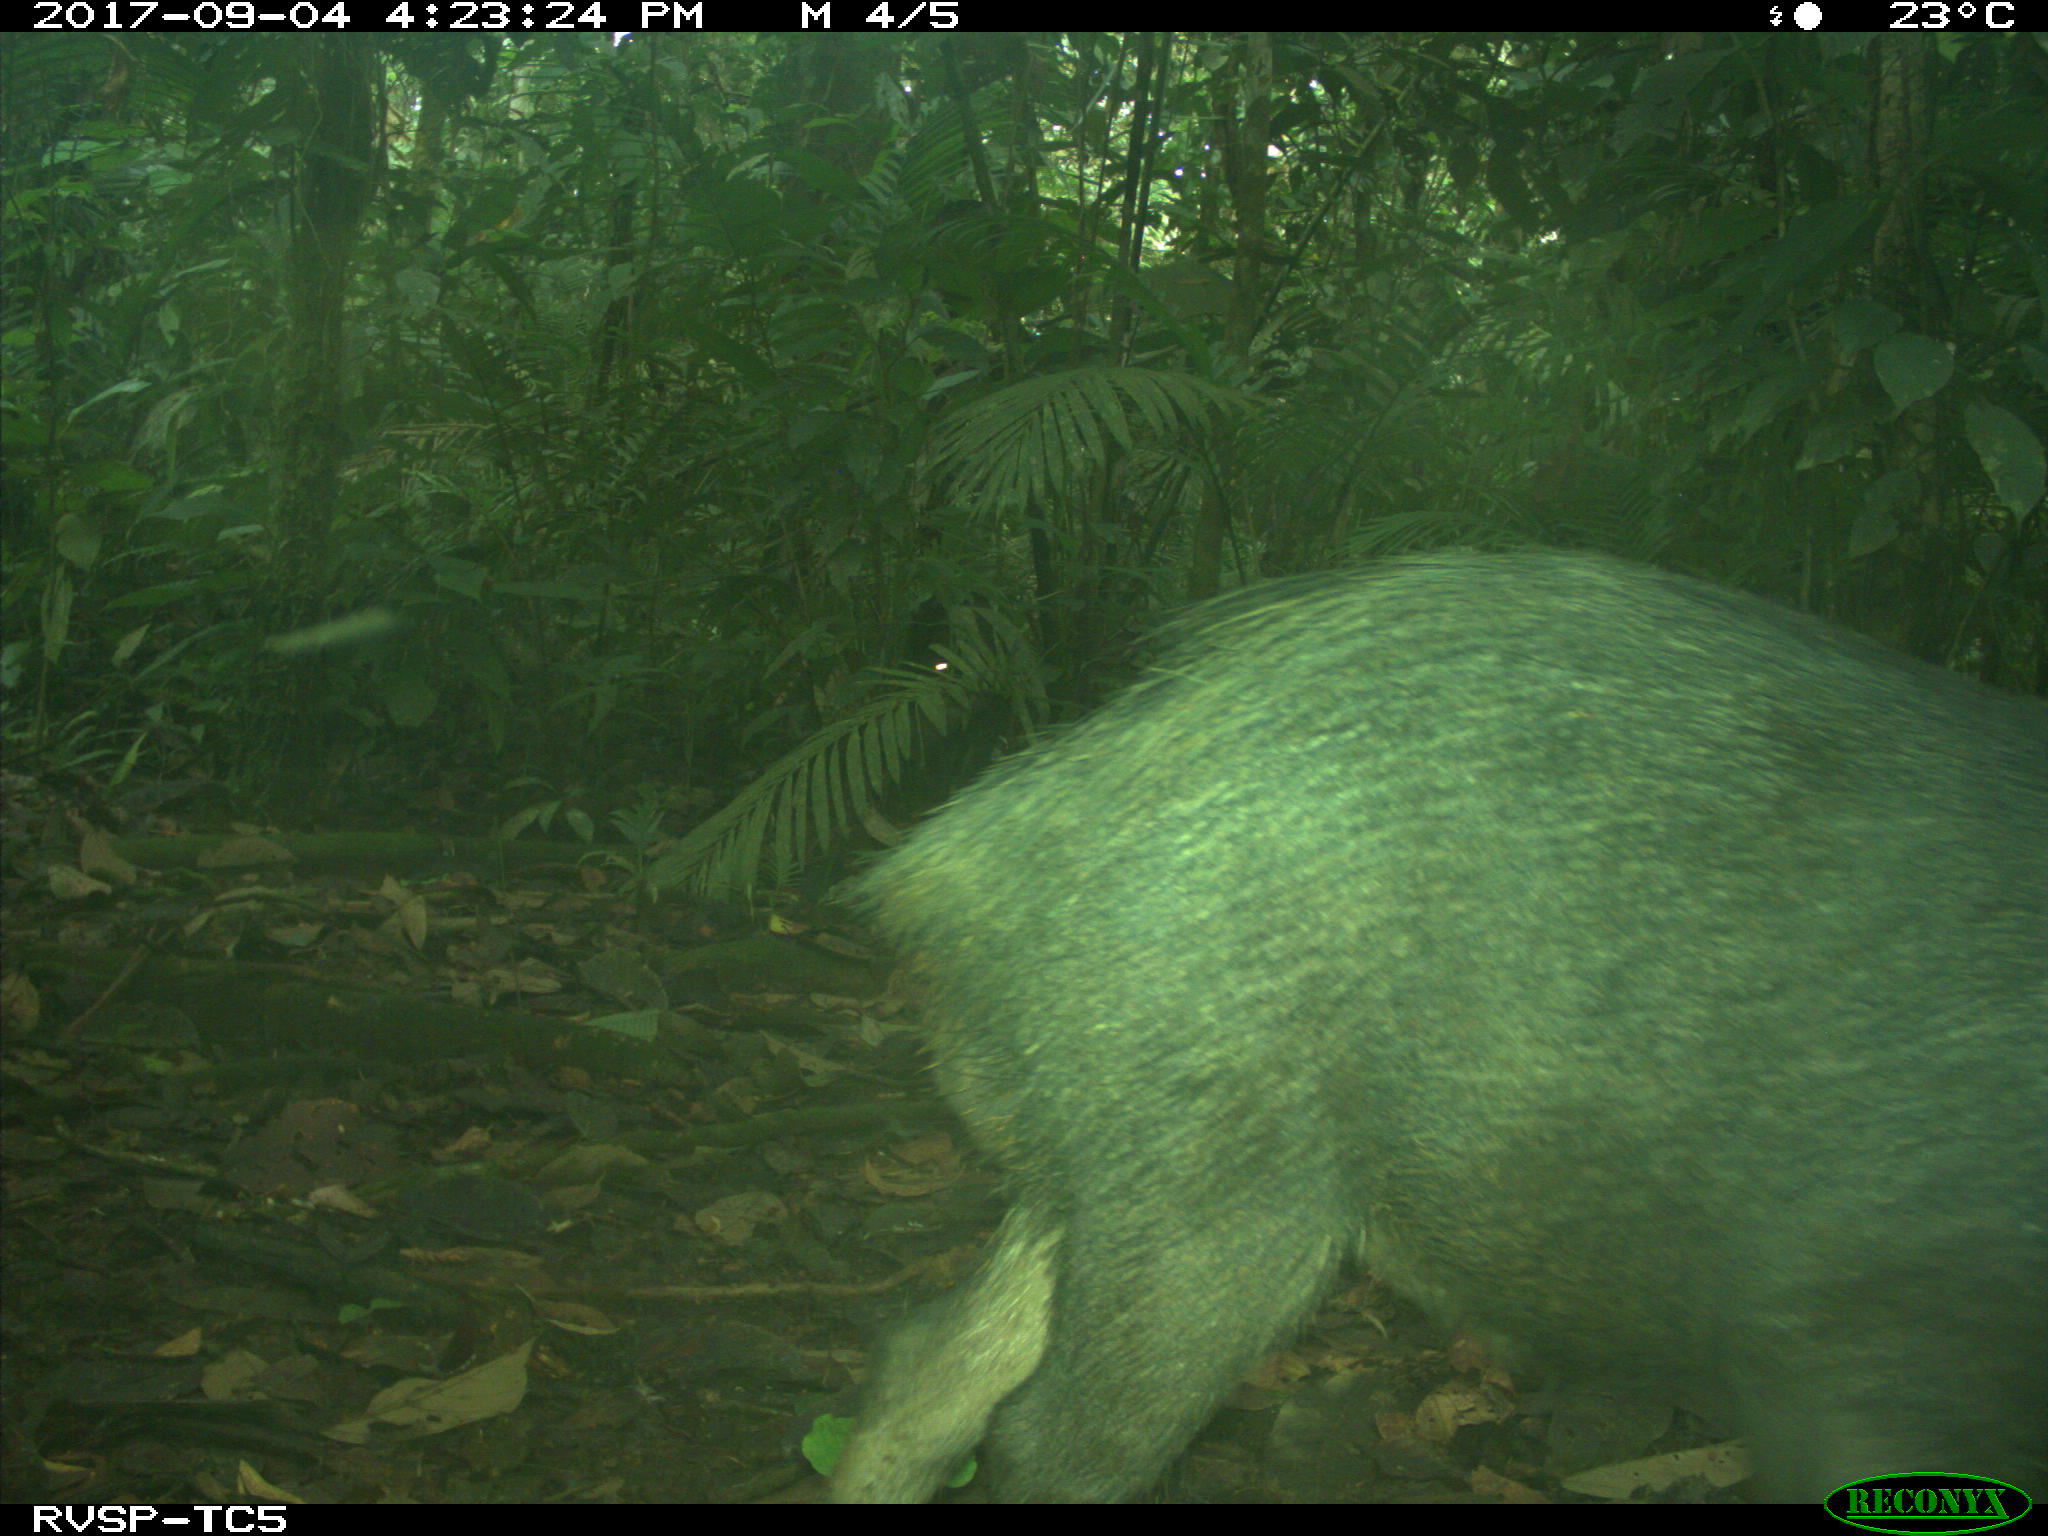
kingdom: Animalia
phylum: Chordata
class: Mammalia
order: Artiodactyla
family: Tayassuidae
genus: Tayassu
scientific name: Tayassu pecari
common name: White-lipped peccary
